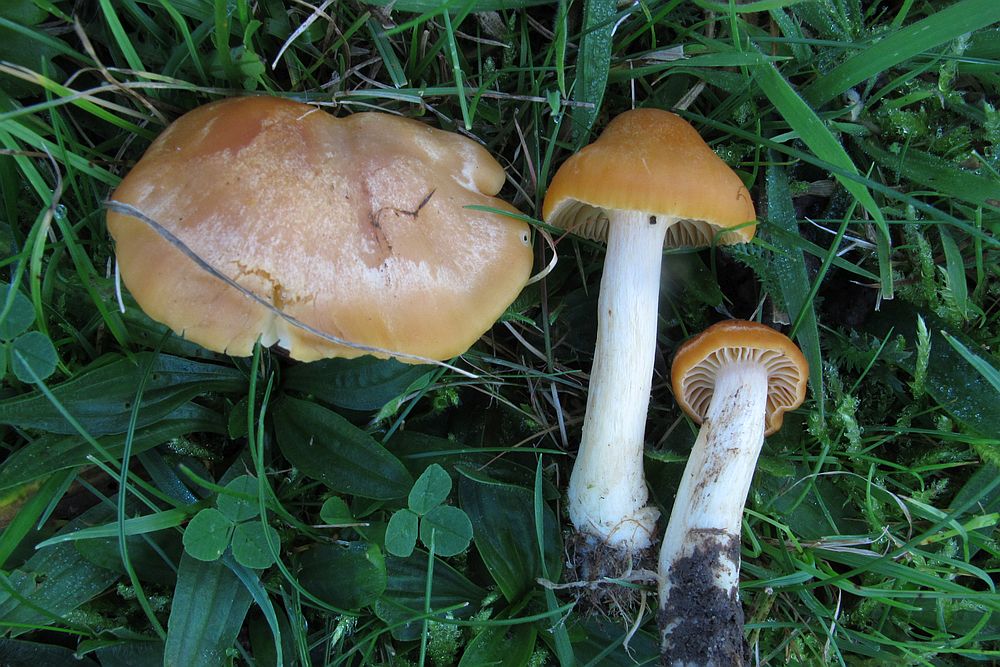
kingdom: Fungi
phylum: Basidiomycota
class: Agaricomycetes
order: Agaricales
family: Hygrophoraceae
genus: Cuphophyllus
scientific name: Cuphophyllus pratensis
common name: eng-vokshat
